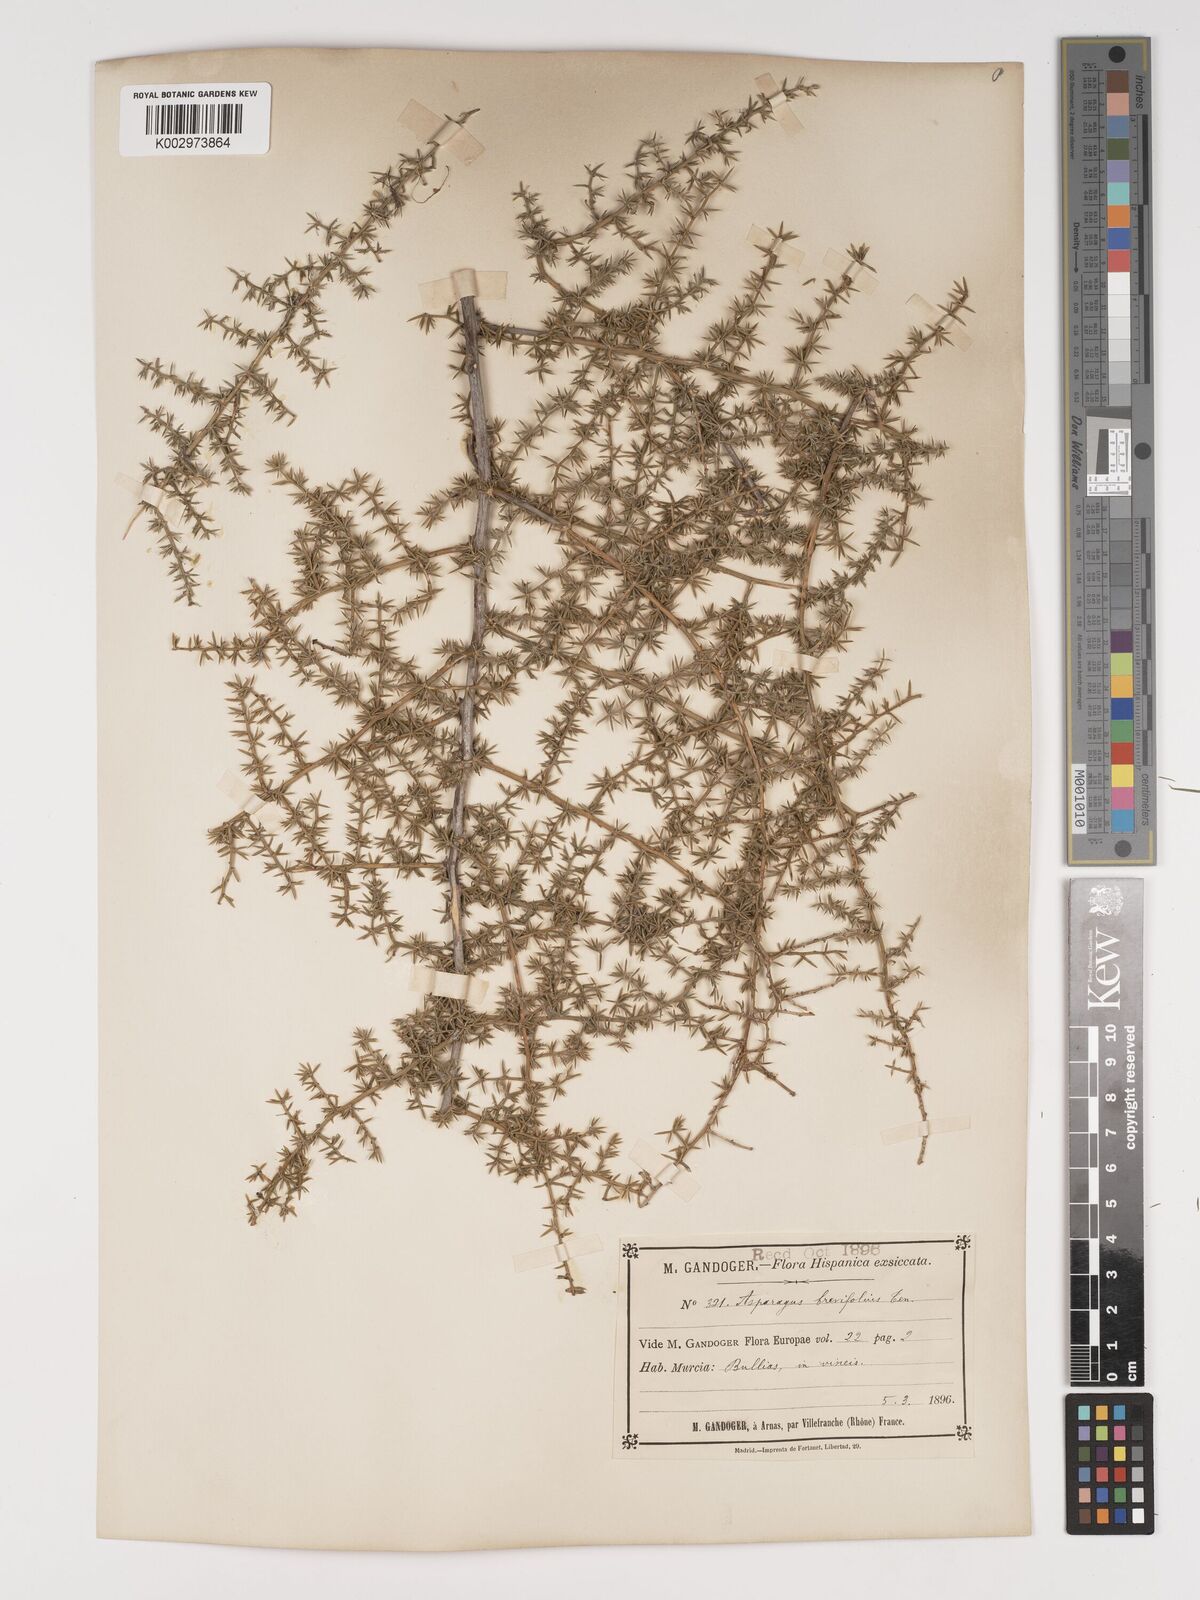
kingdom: Plantae
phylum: Tracheophyta
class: Liliopsida
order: Asparagales
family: Asparagaceae
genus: Asparagus
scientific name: Asparagus acutifolius
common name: Wild asparagus
